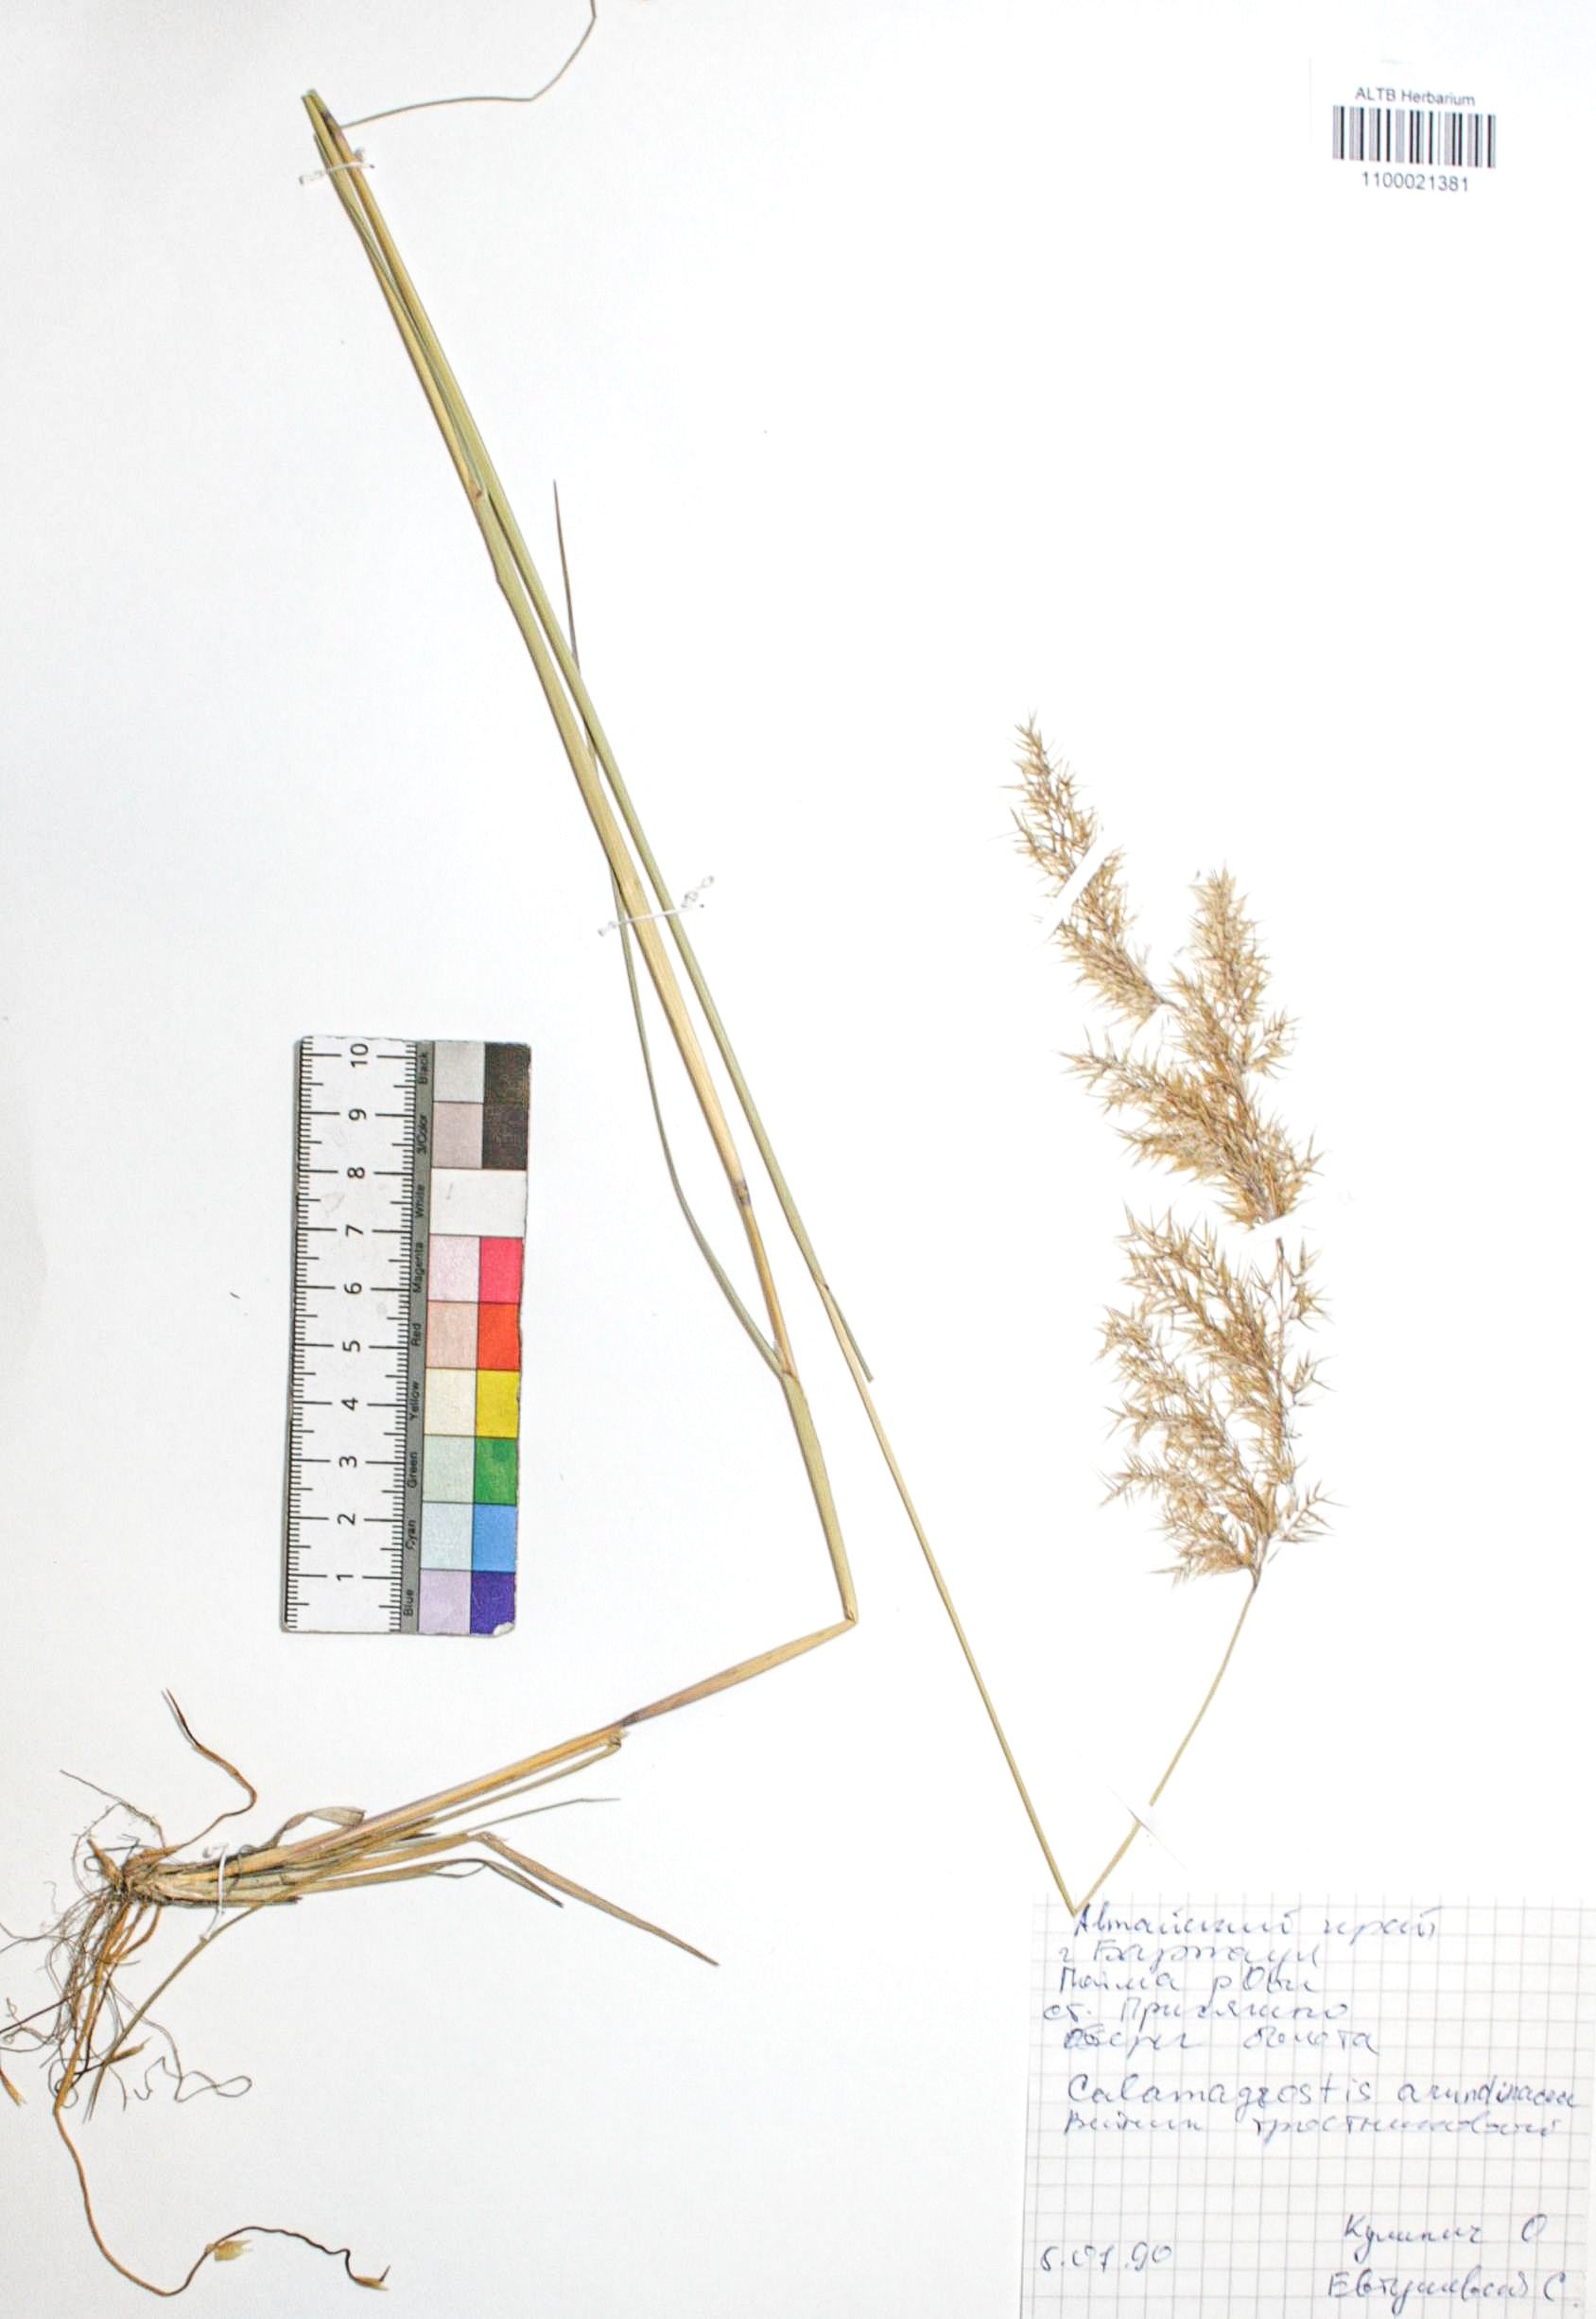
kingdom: Plantae
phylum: Tracheophyta
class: Liliopsida
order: Poales
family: Poaceae
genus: Calamagrostis
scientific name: Calamagrostis arundinacea
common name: Metskastik
